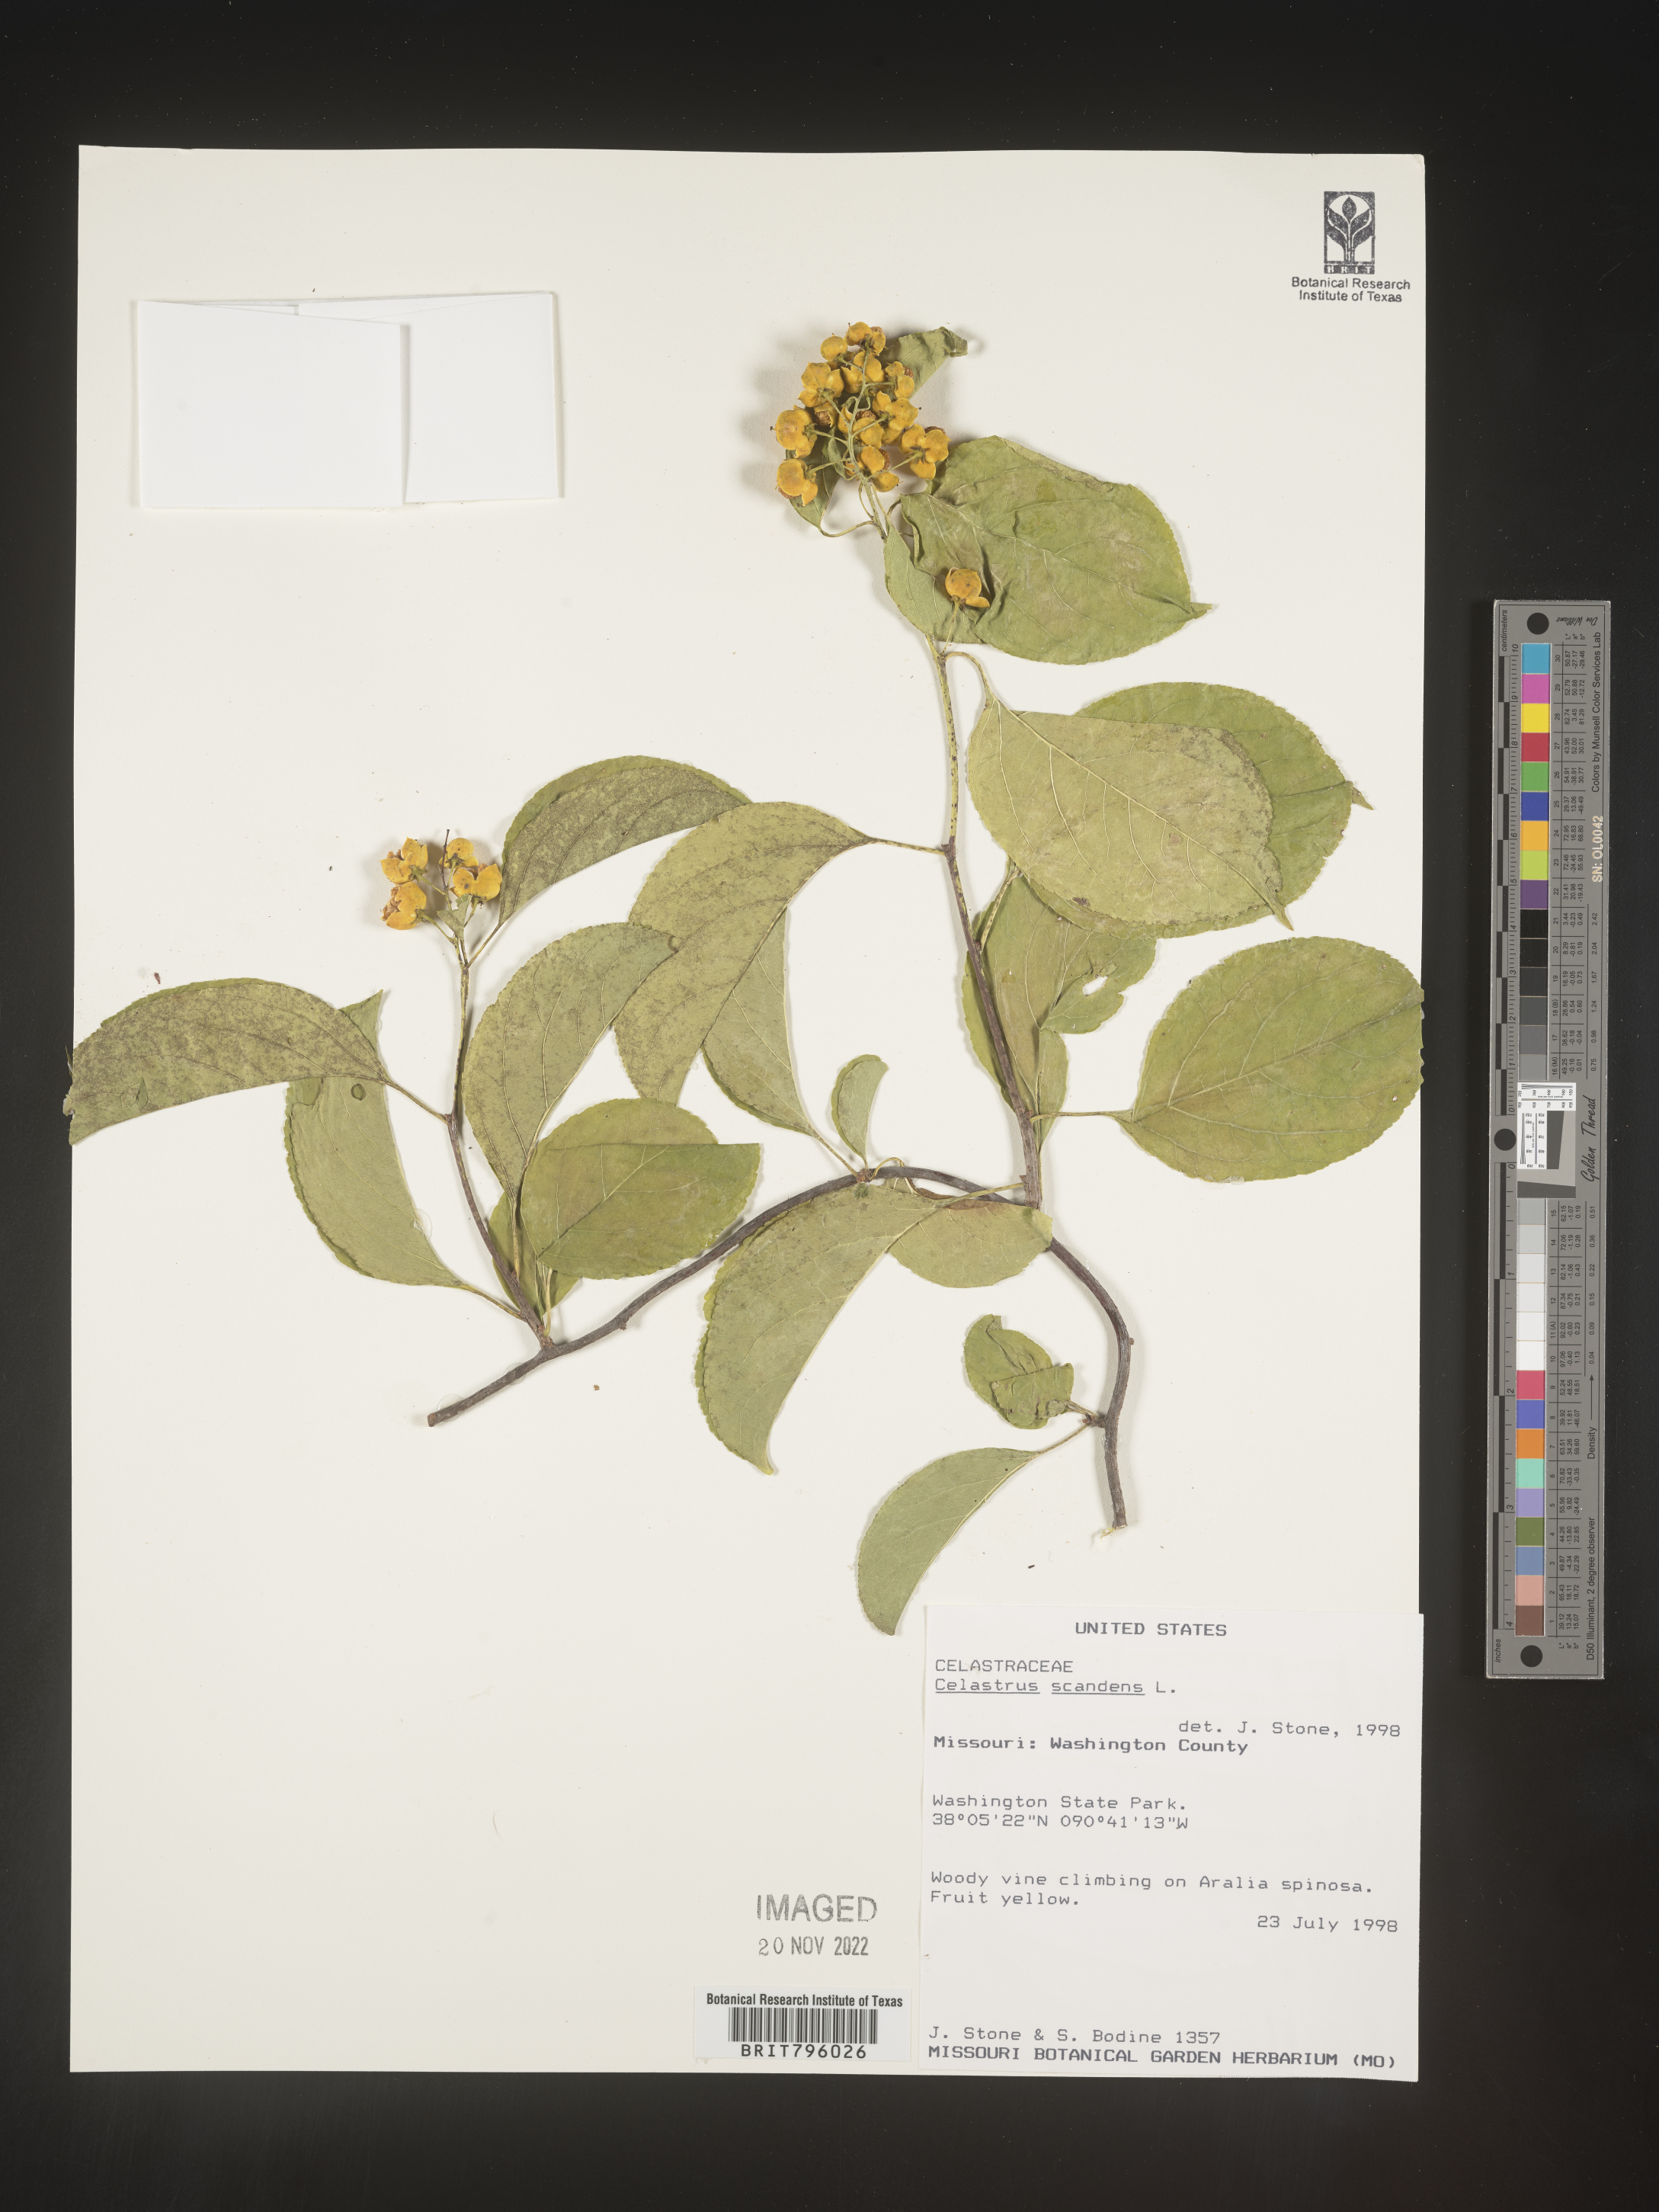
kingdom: Plantae
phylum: Tracheophyta
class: Magnoliopsida
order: Celastrales
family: Celastraceae
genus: Celastrus
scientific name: Celastrus scandens
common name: American bittersweet
